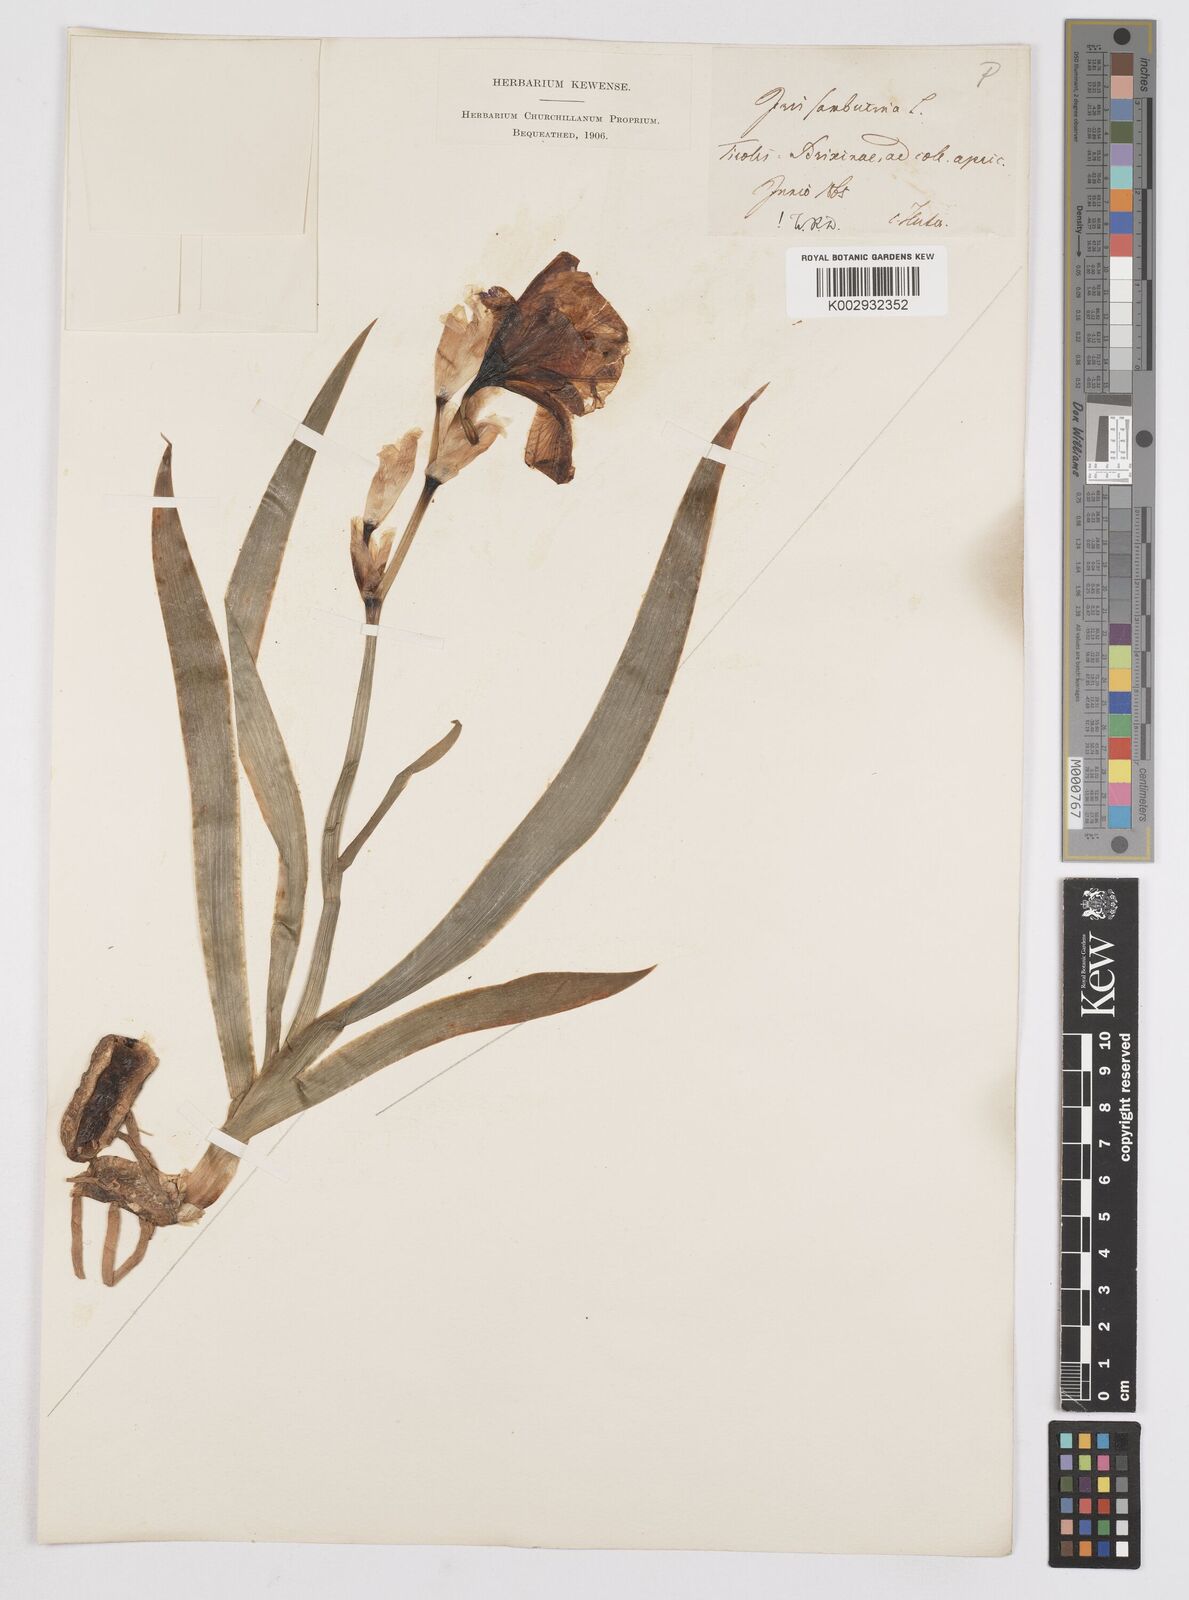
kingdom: Plantae
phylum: Tracheophyta
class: Liliopsida
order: Asparagales
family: Iridaceae
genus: Iris
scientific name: Iris germanica
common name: German iris
